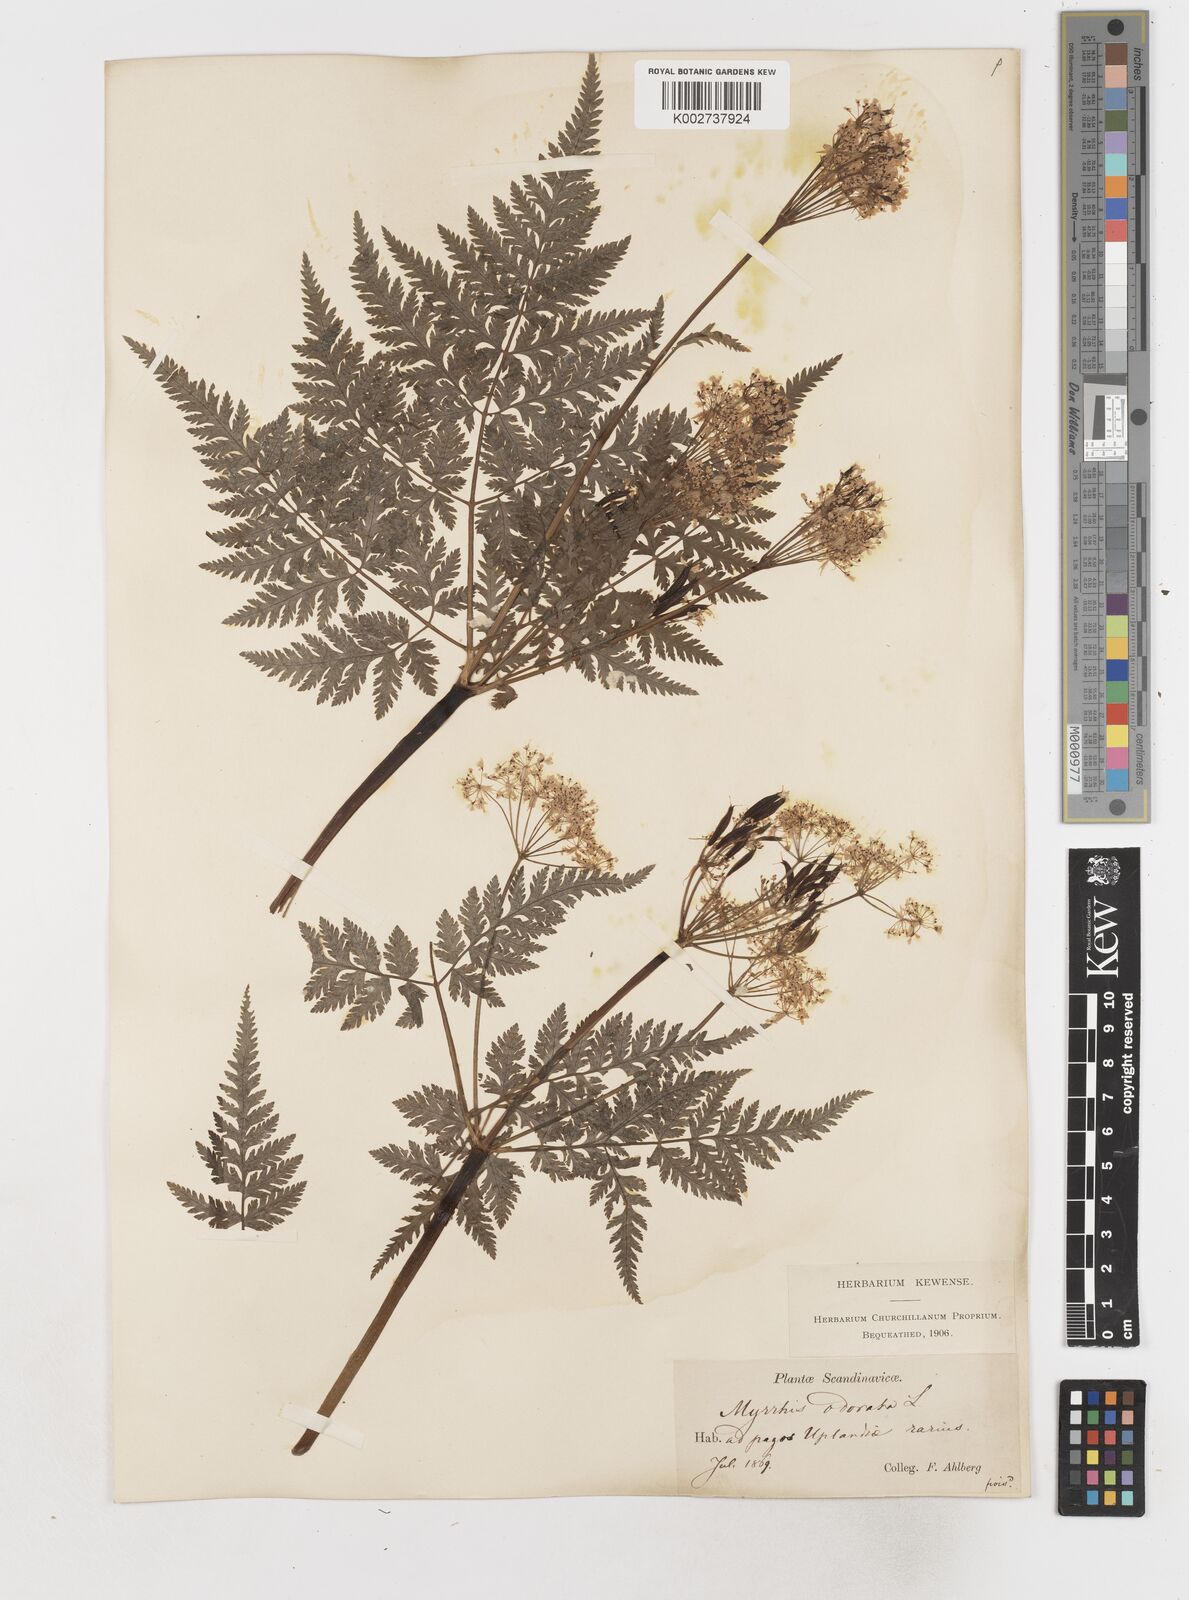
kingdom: Plantae
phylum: Tracheophyta
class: Magnoliopsida
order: Apiales
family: Apiaceae
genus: Myrrhis
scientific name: Myrrhis odorata
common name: Sweet cicely
